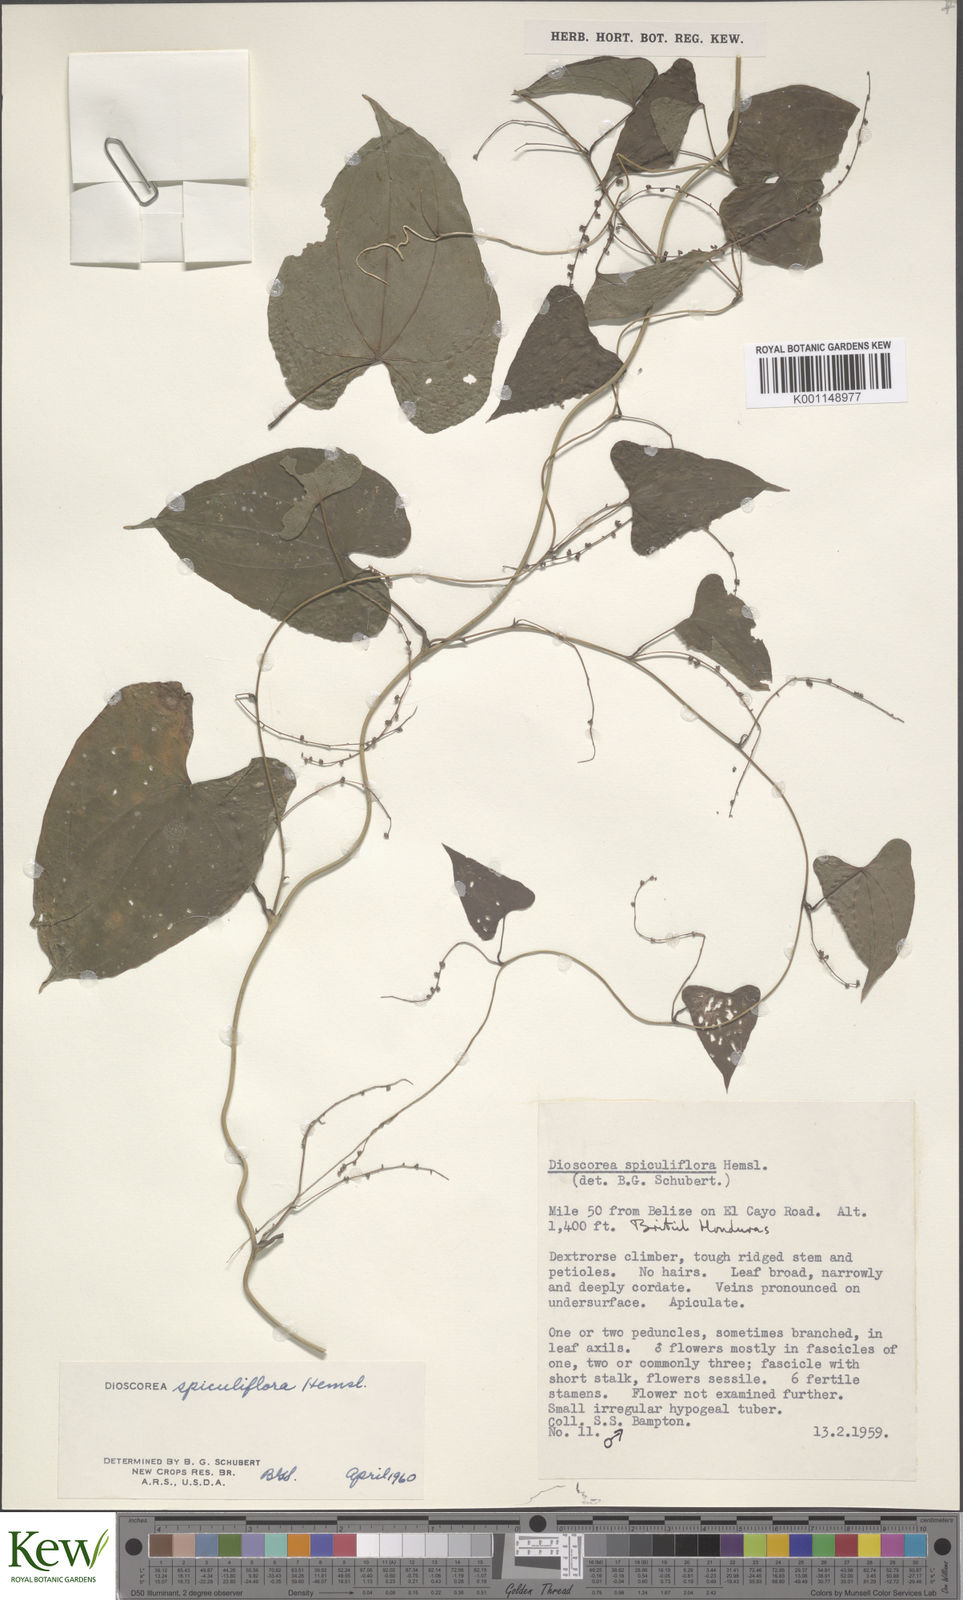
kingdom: Plantae
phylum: Tracheophyta
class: Liliopsida
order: Dioscoreales
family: Dioscoreaceae
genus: Dioscorea
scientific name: Dioscorea spiculiflora
